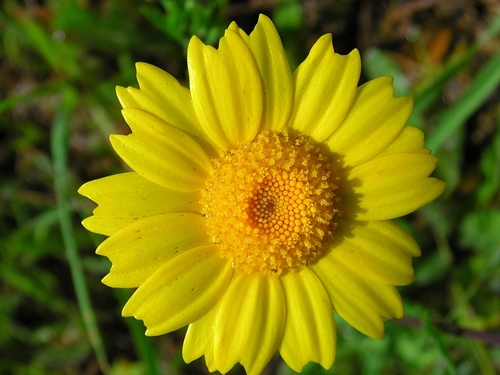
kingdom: Plantae
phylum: Tracheophyta
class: Magnoliopsida
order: Asterales
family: Asteraceae
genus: Coleostephus
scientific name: Coleostephus myconis
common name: Mediterranean marigold
